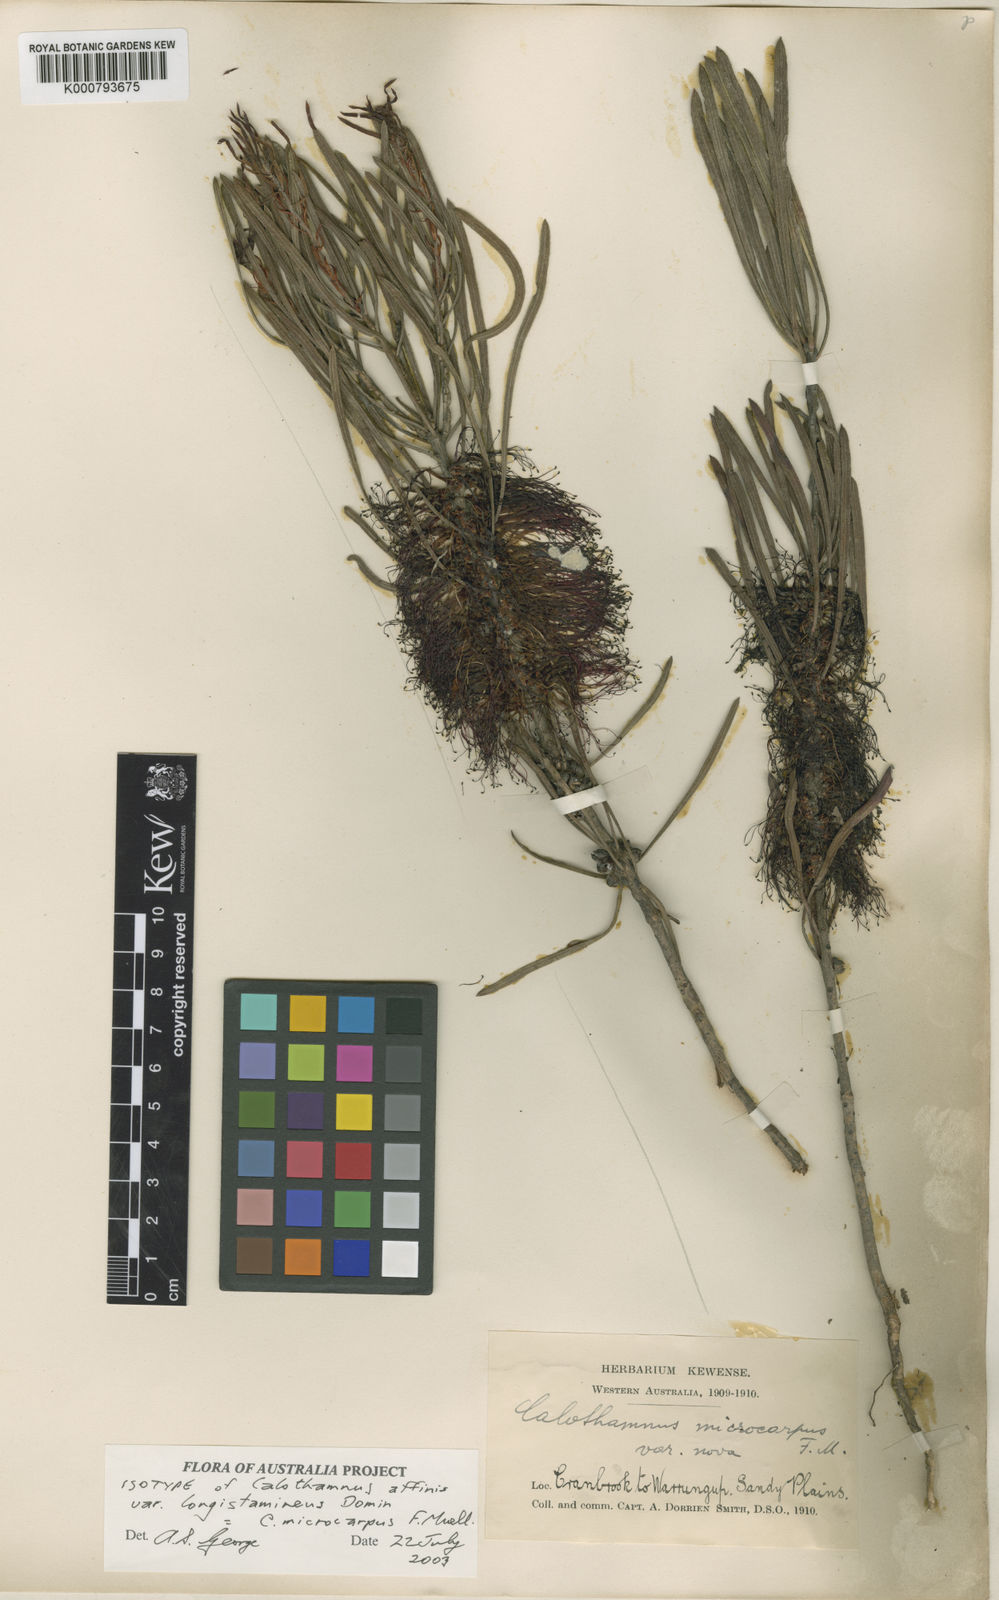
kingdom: Plantae
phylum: Tracheophyta
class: Magnoliopsida
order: Myrtales
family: Myrtaceae
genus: Melaleuca
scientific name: Melaleuca microcarpa
